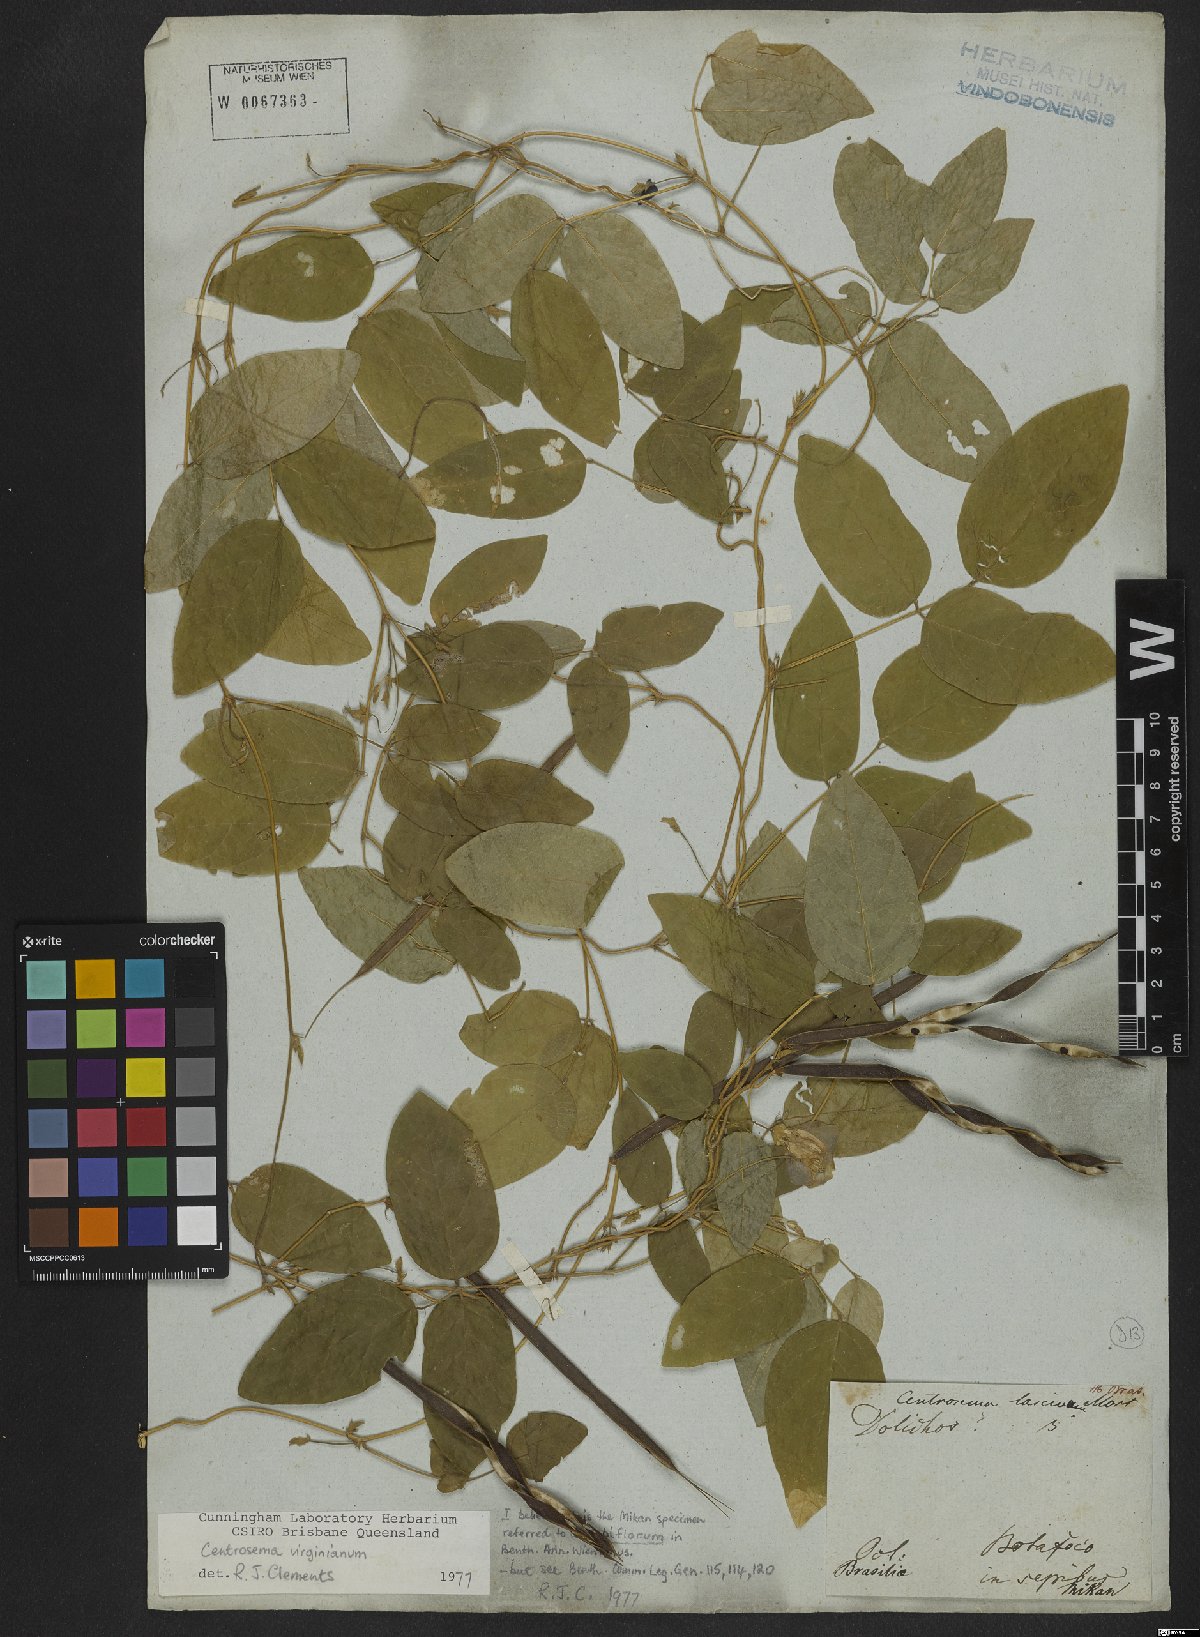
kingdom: Plantae
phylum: Tracheophyta
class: Magnoliopsida
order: Fabales
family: Fabaceae
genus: Centrosema
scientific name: Centrosema virginianum
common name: Butterfly-pea
